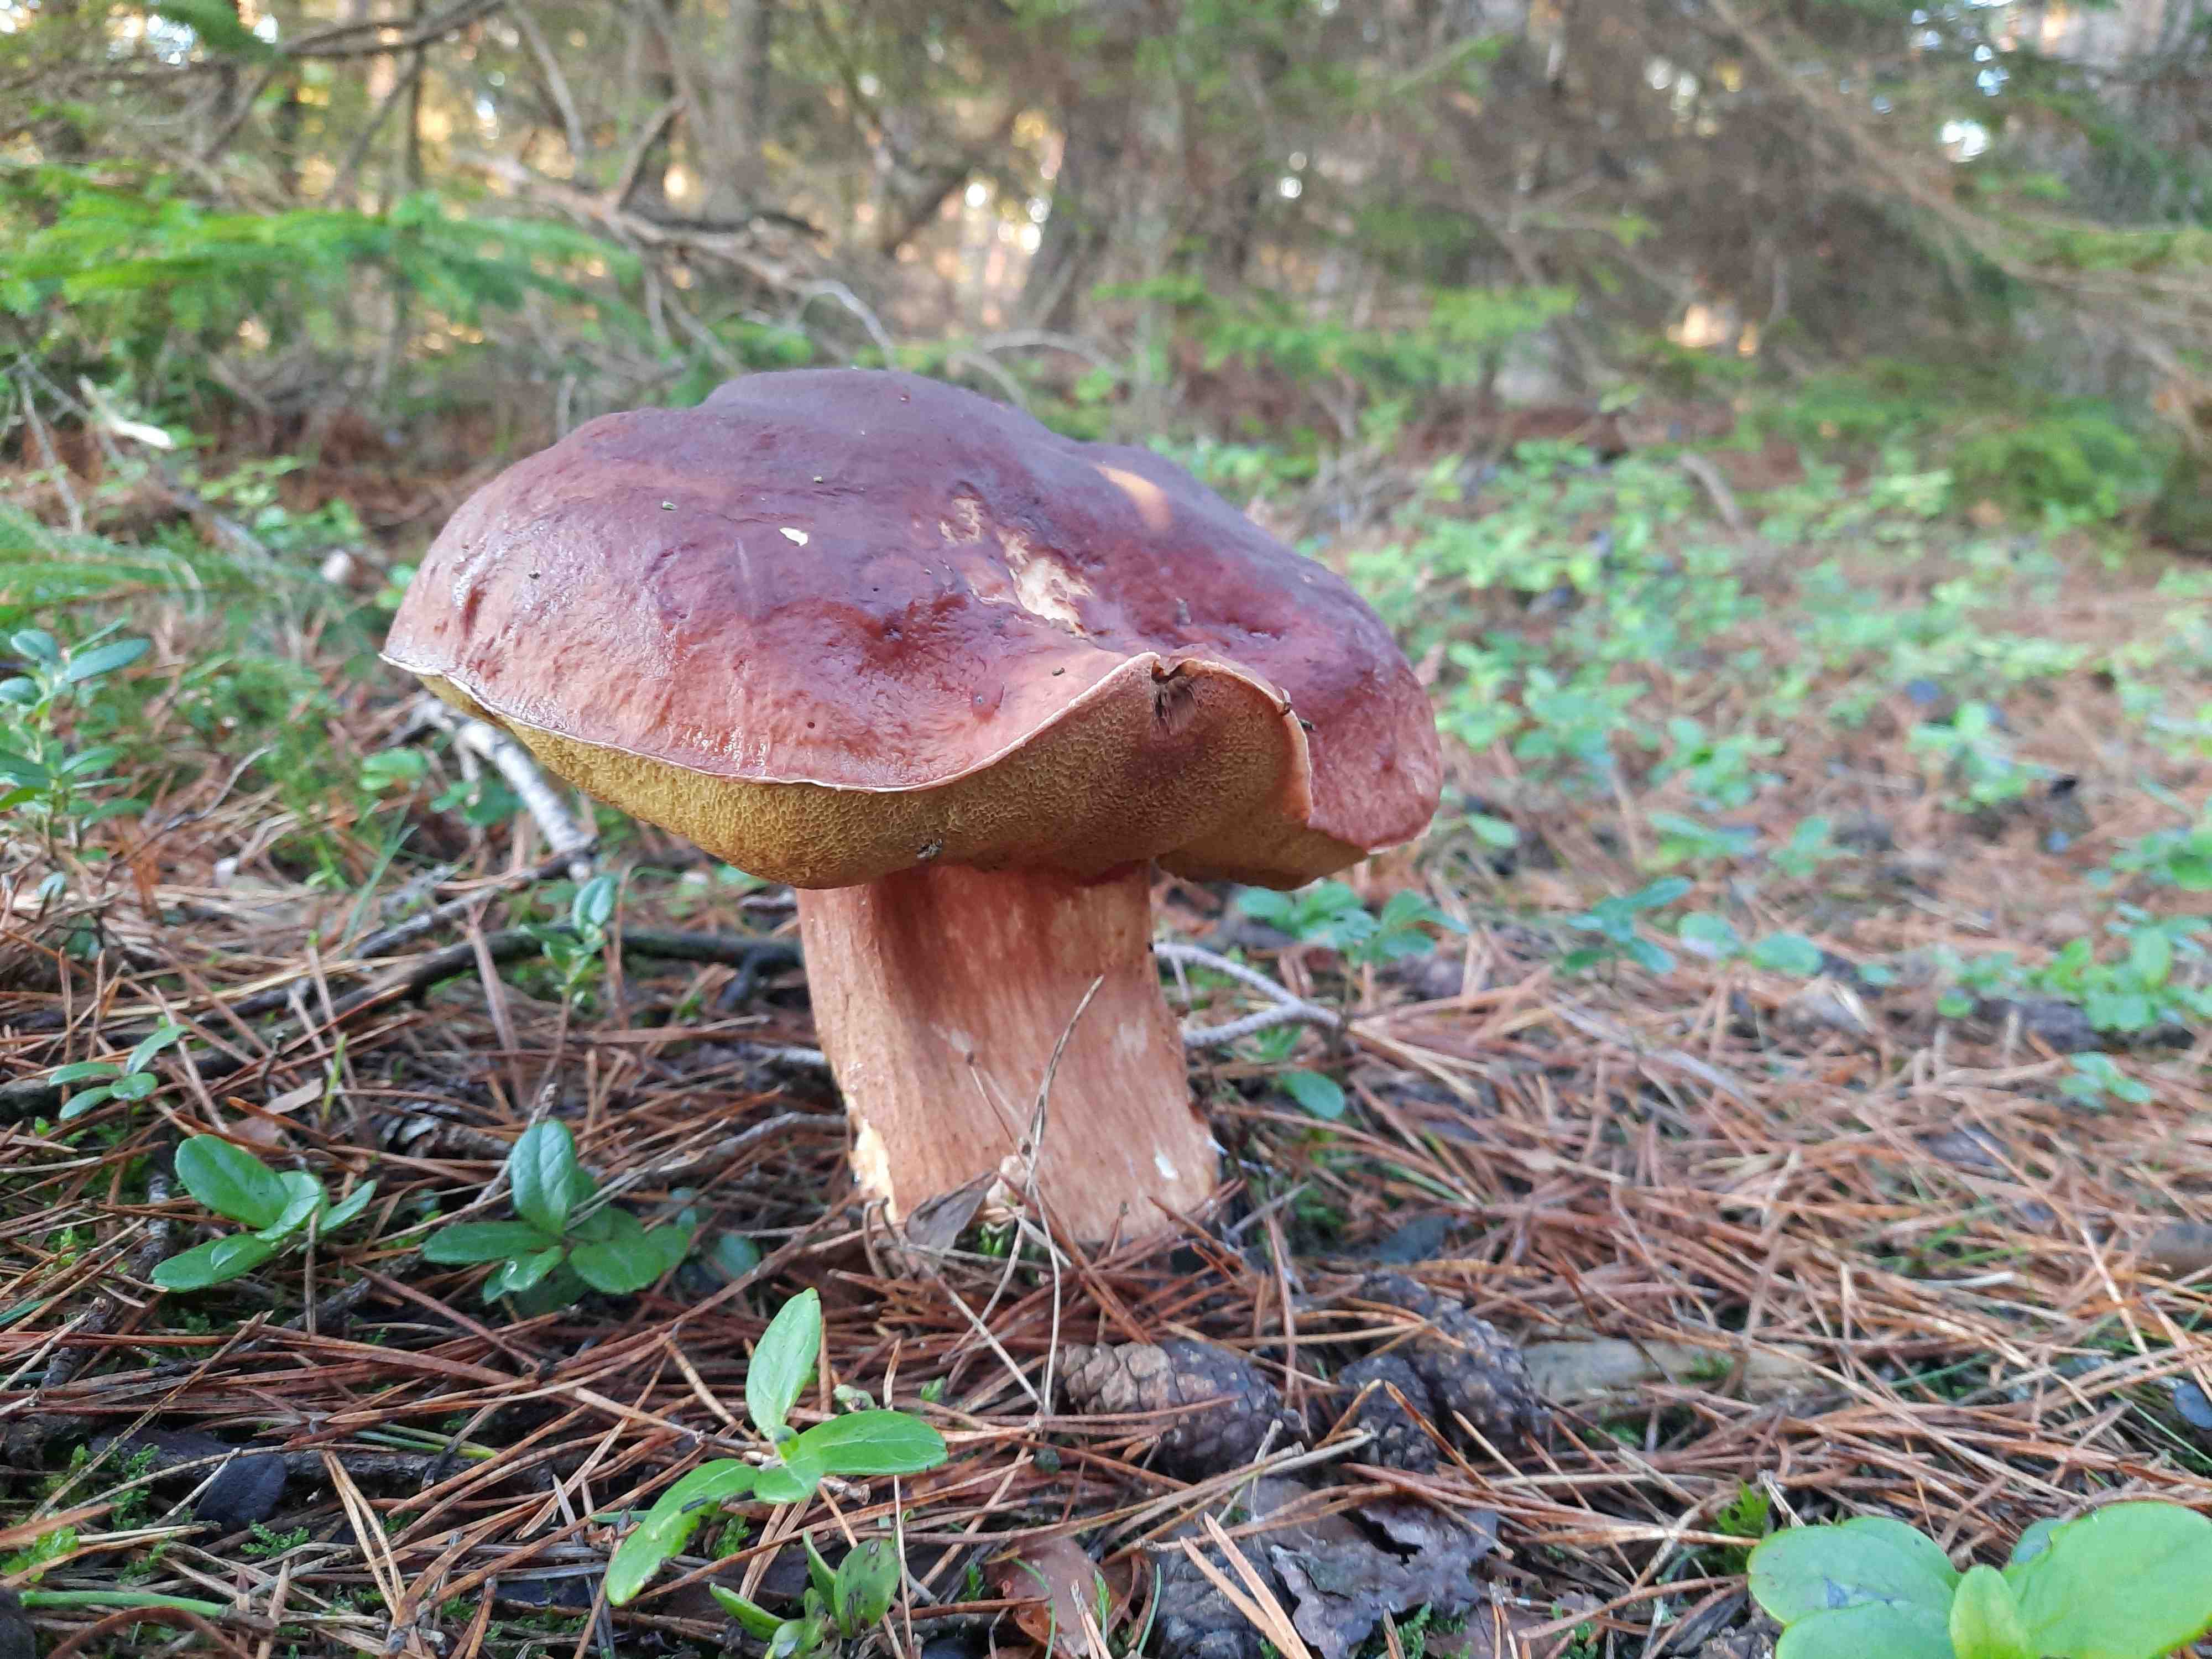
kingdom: Fungi
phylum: Basidiomycota
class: Agaricomycetes
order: Boletales
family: Boletaceae
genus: Boletus
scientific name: Boletus pinophilus
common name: rødbrun rørhat
